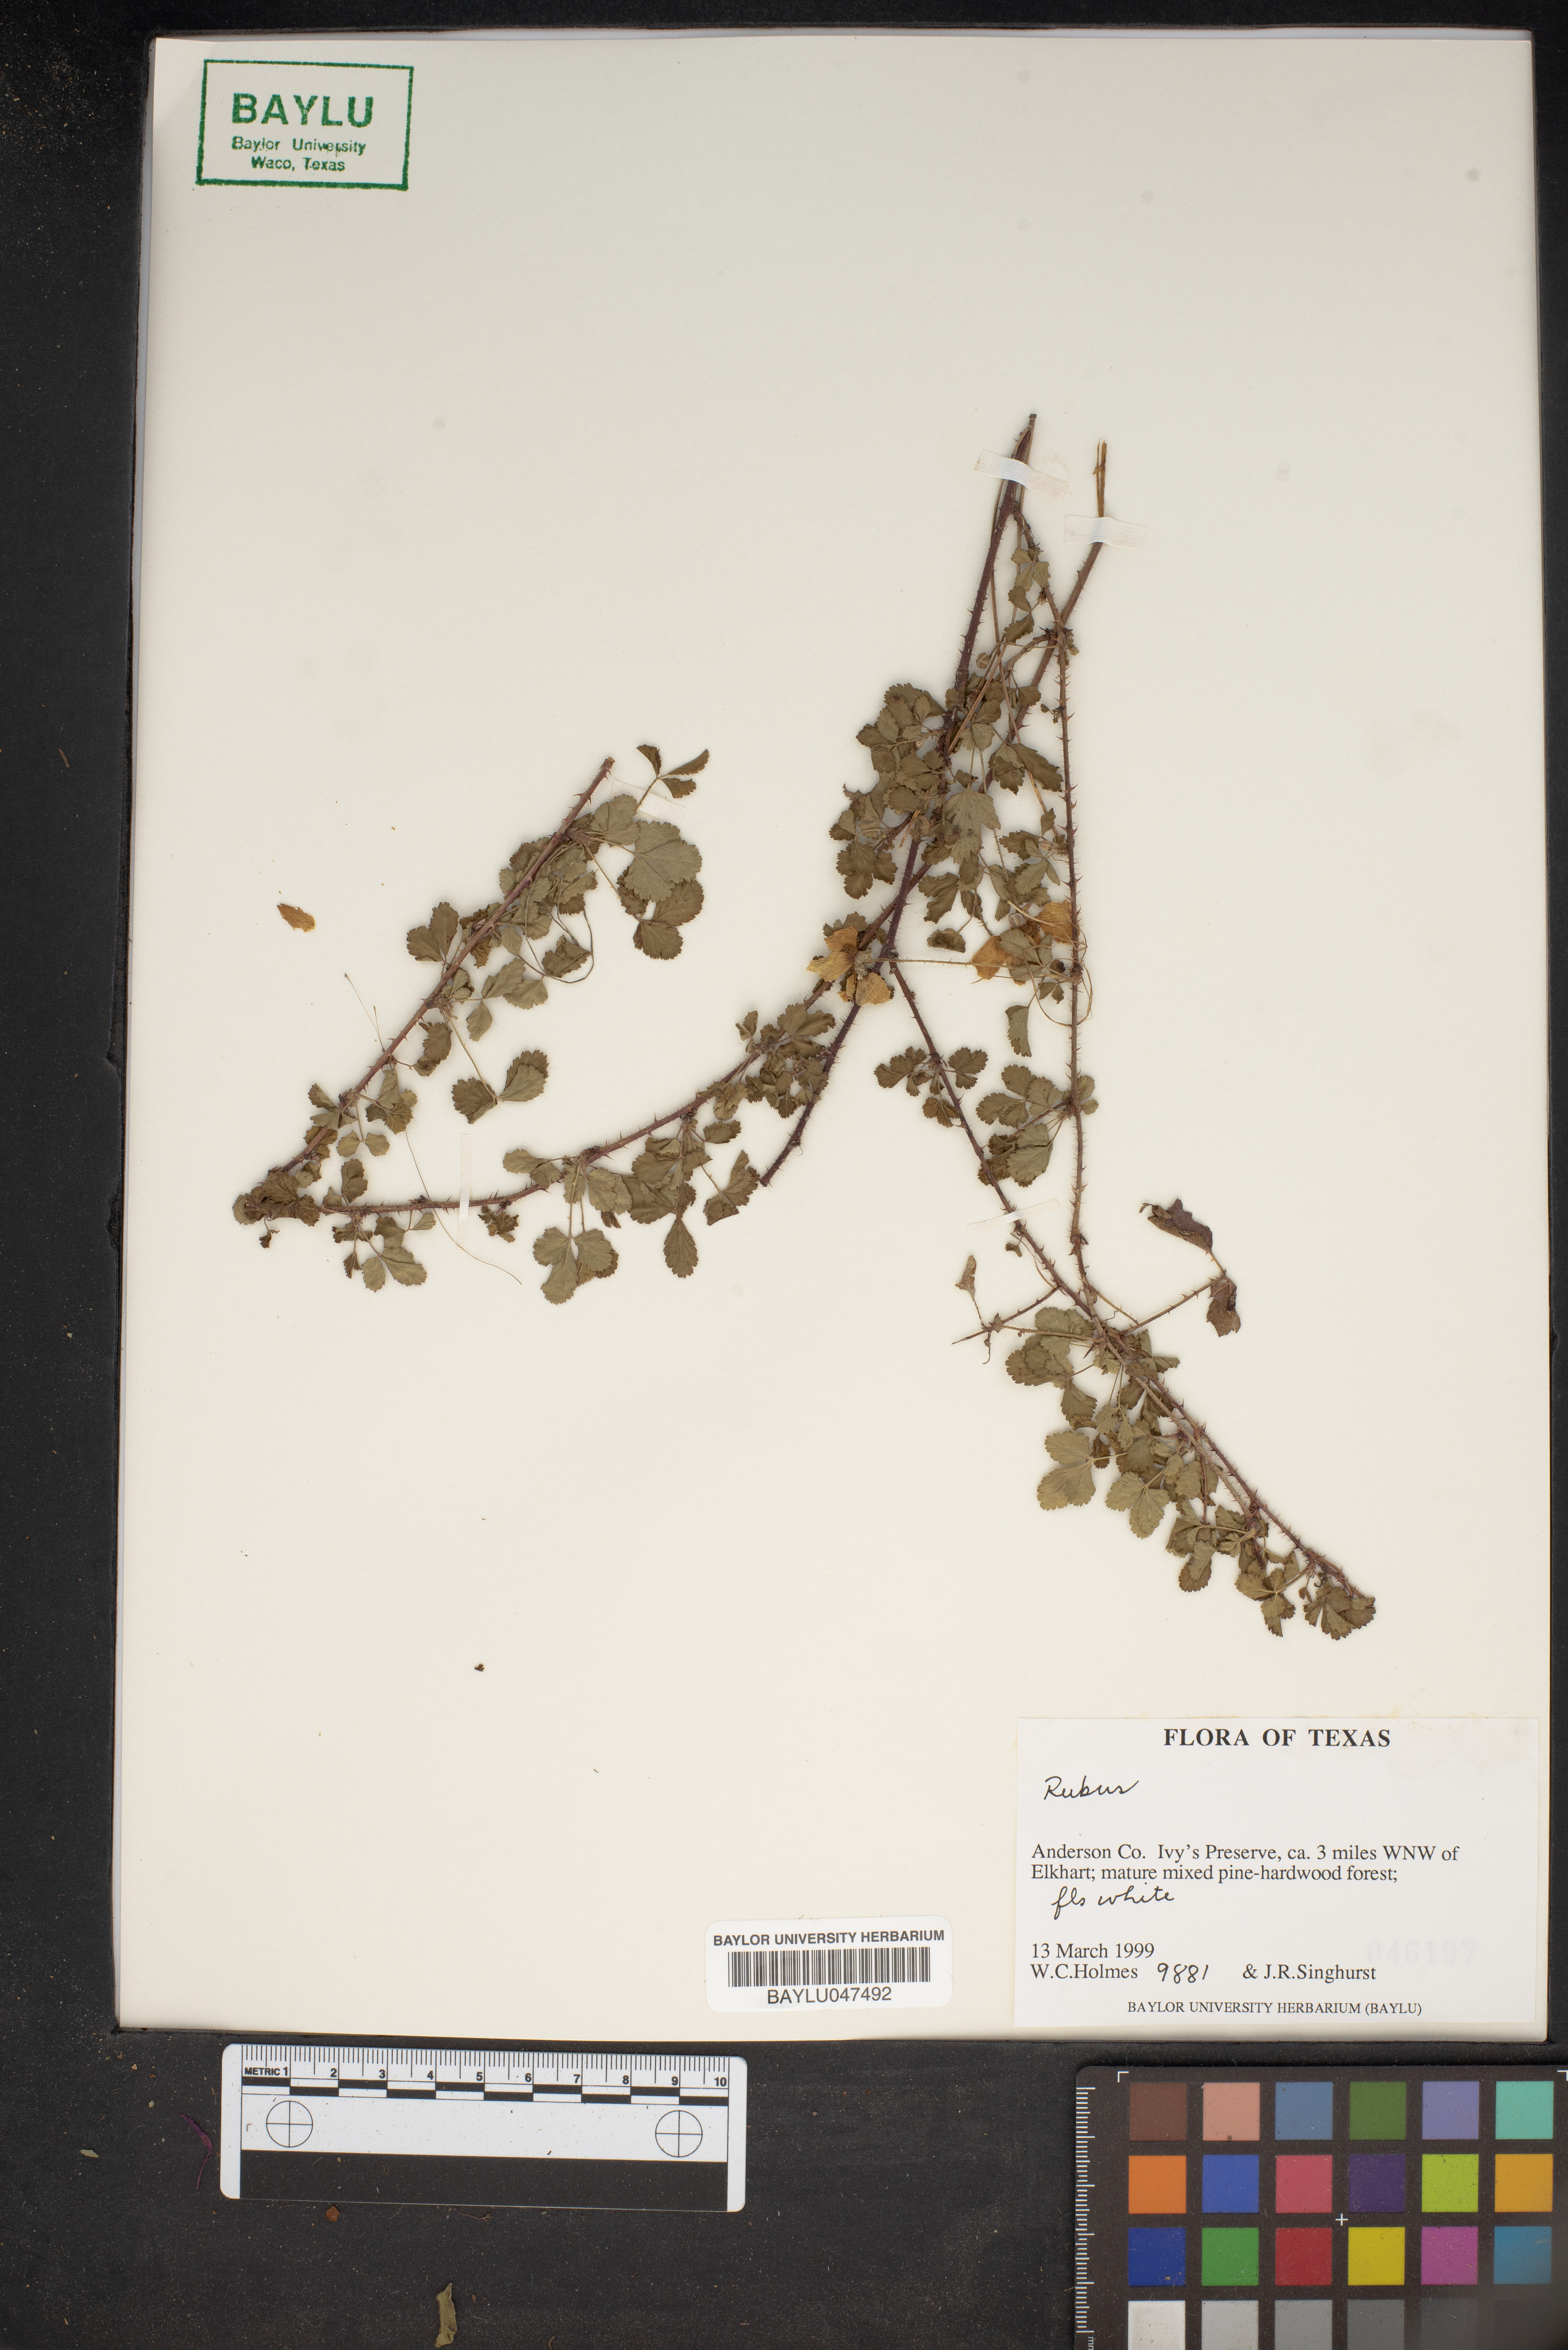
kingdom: Plantae
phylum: Tracheophyta
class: Magnoliopsida
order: Rosales
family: Rosaceae
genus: Rubus
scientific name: Rubus
